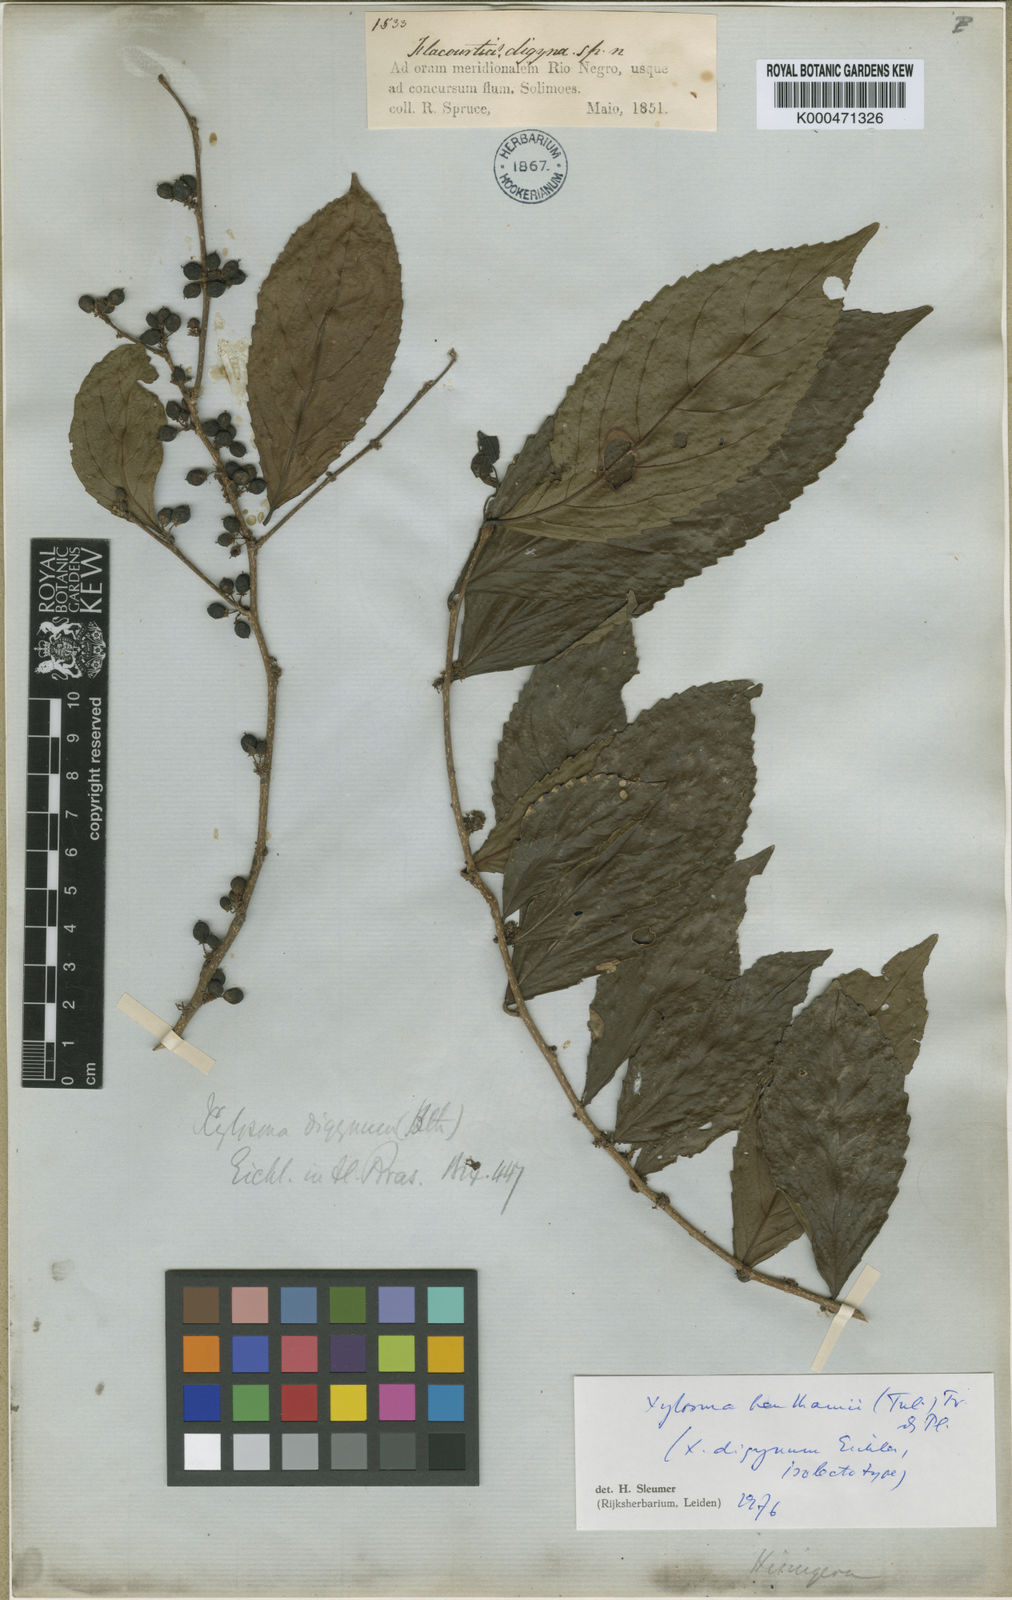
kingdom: Plantae
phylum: Tracheophyta
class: Magnoliopsida
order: Malpighiales
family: Salicaceae
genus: Xylosma
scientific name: Xylosma benthamii
